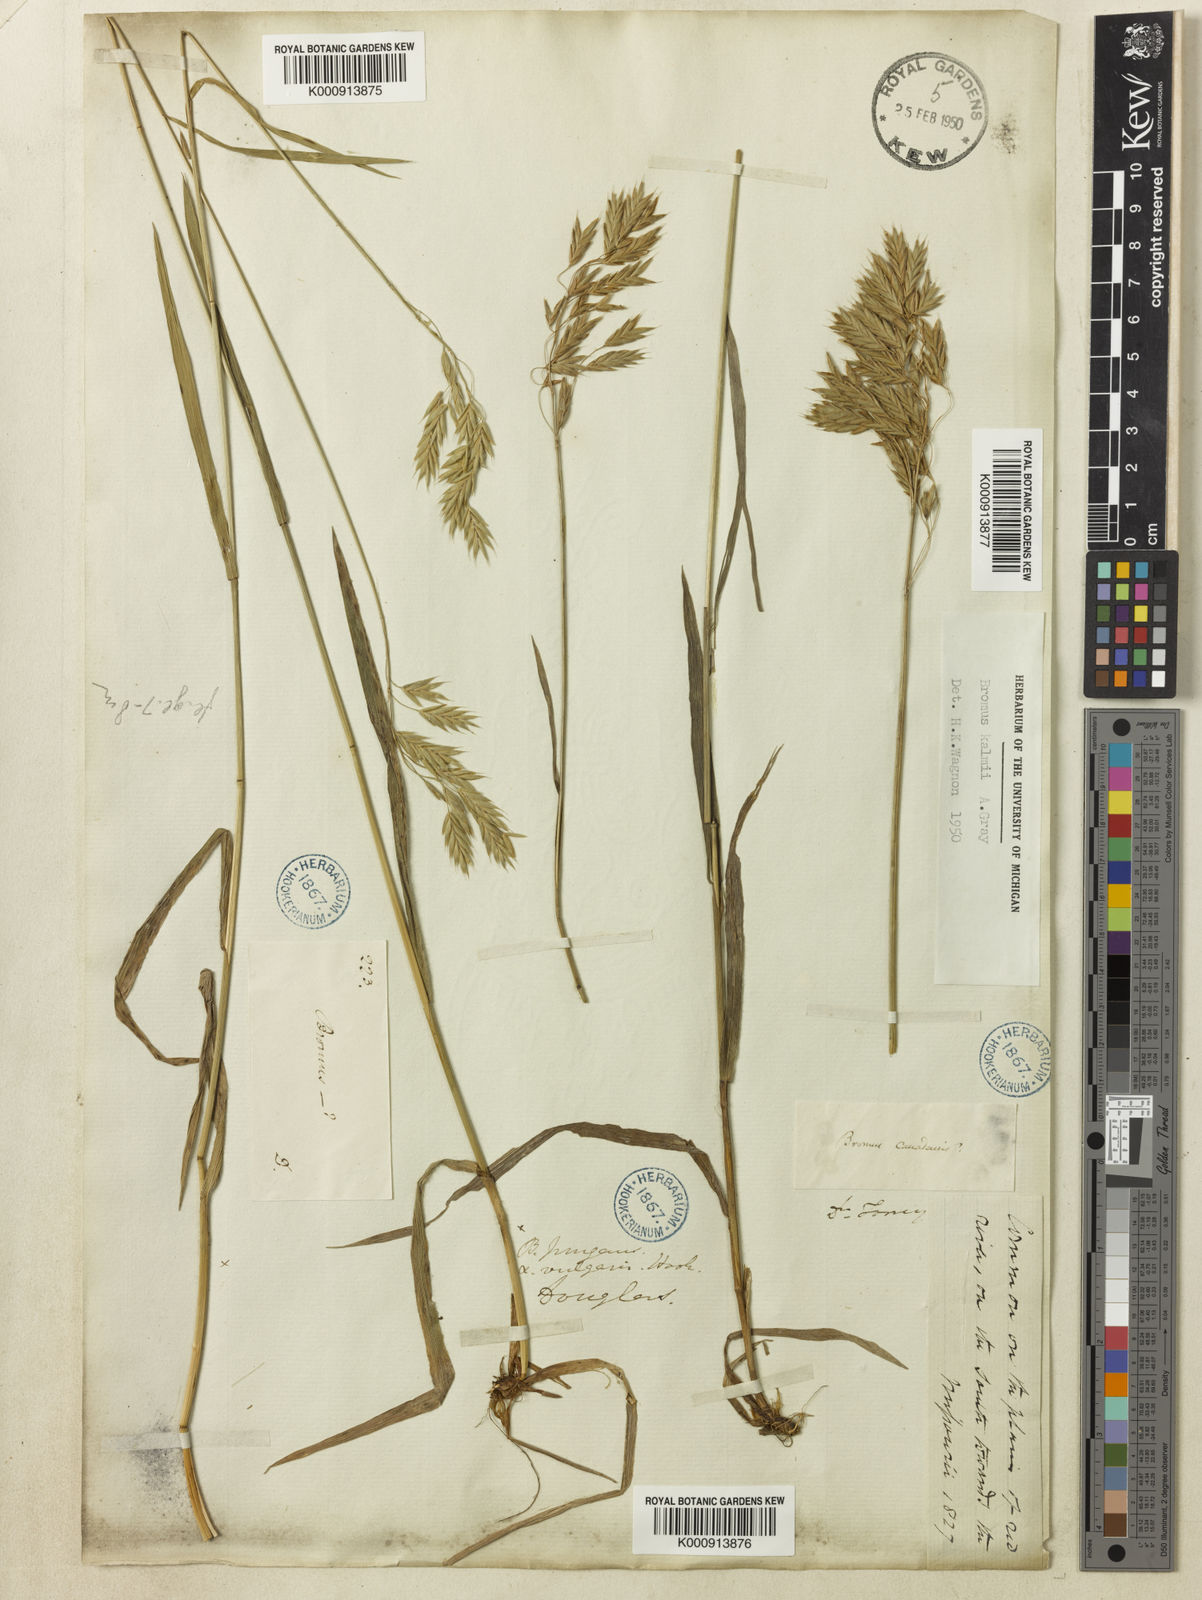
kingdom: Plantae
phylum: Tracheophyta
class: Liliopsida
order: Poales
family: Poaceae
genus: Bromus
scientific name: Bromus kalmii
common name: Kalm brome
